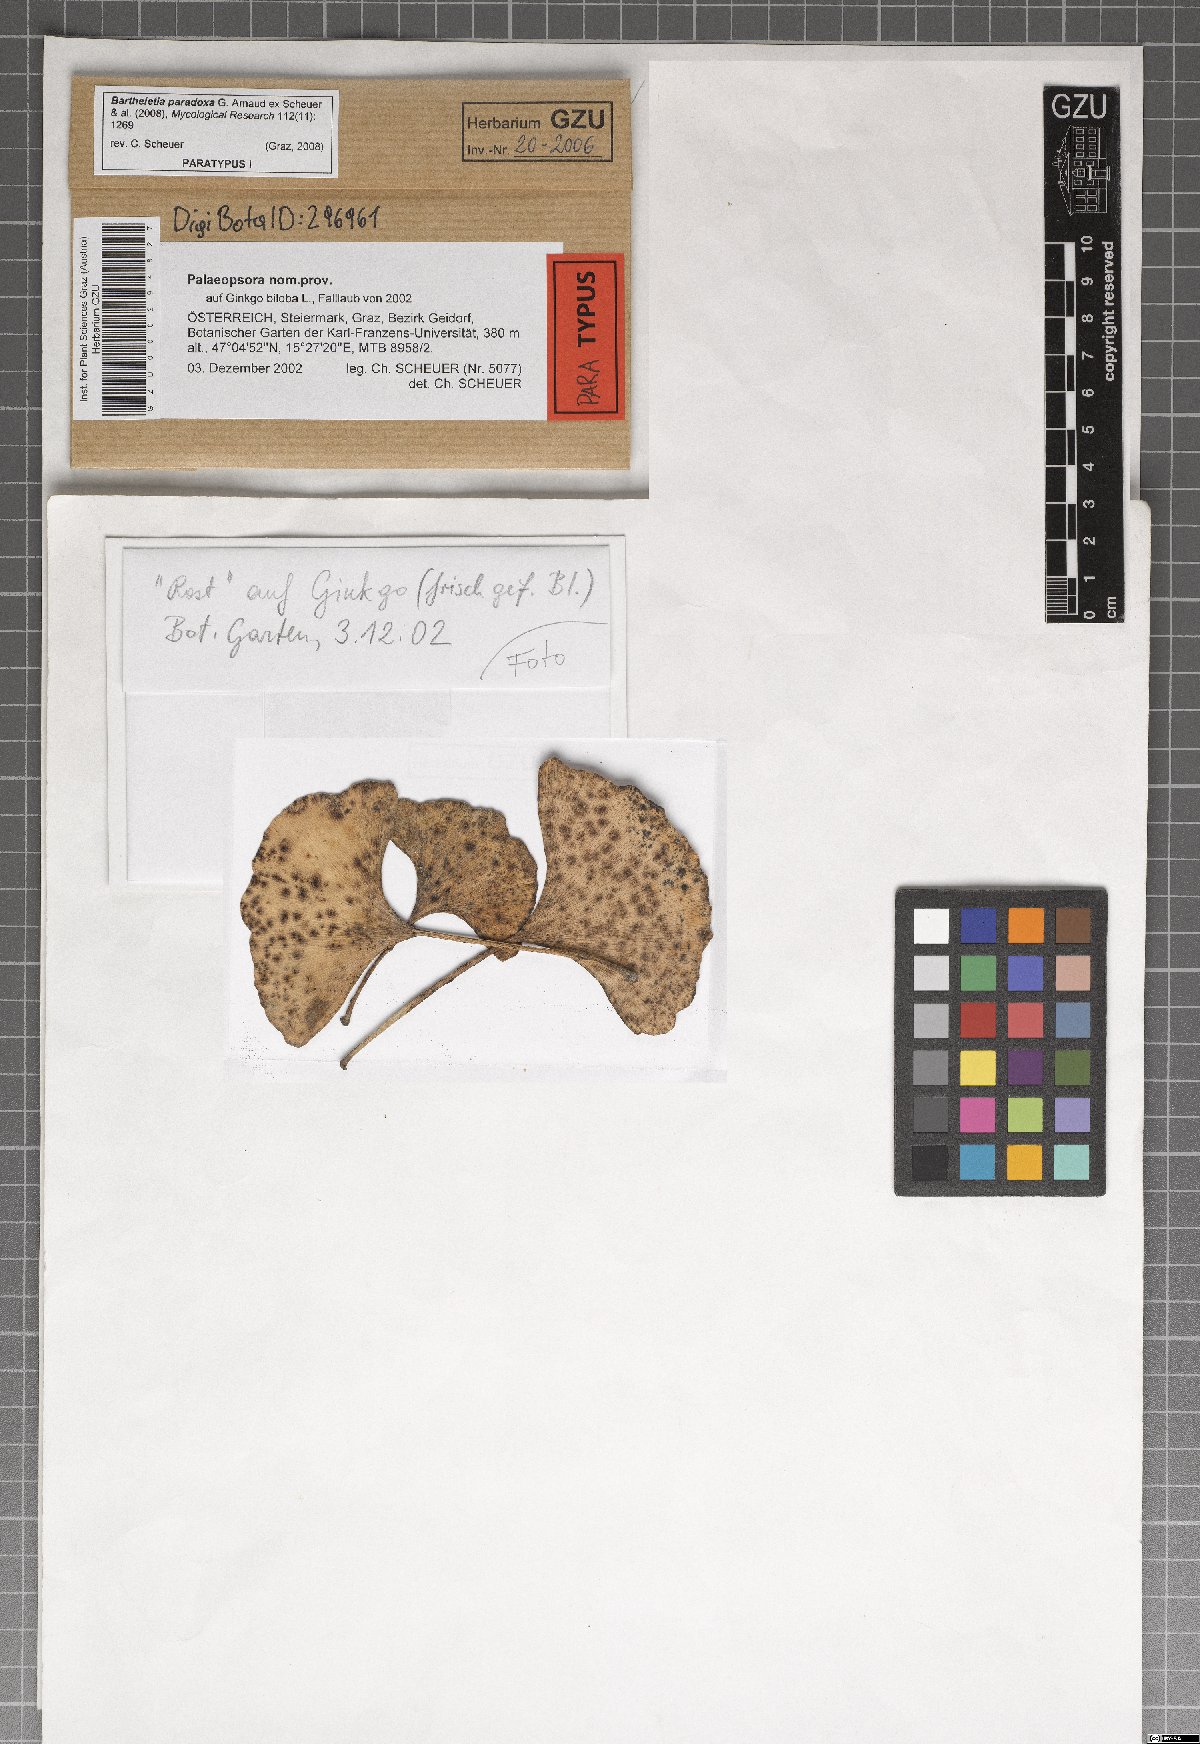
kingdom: Fungi
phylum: Basidiomycota
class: Wallemiomycetes
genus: Bartheletia
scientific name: Bartheletia paradoxa
